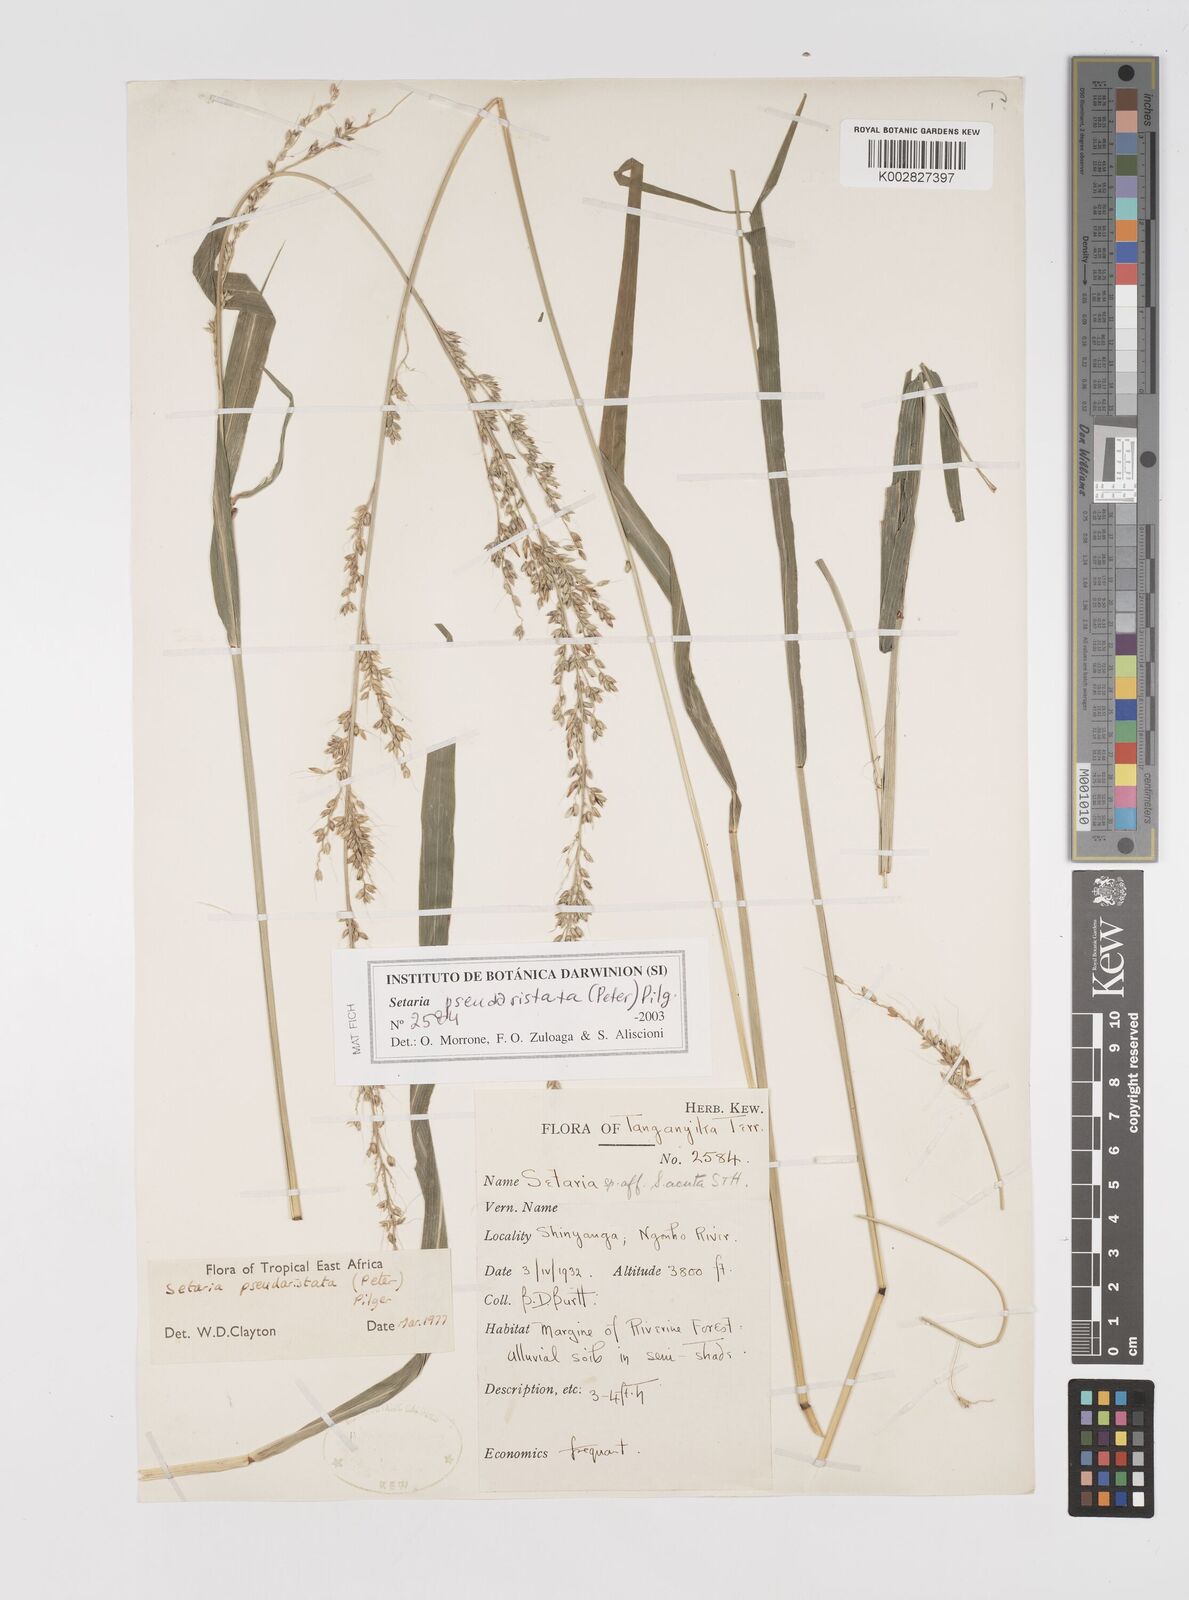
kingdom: Plantae
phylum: Tracheophyta
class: Liliopsida
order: Poales
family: Poaceae
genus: Setaria
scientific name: Setaria pseudaristata
